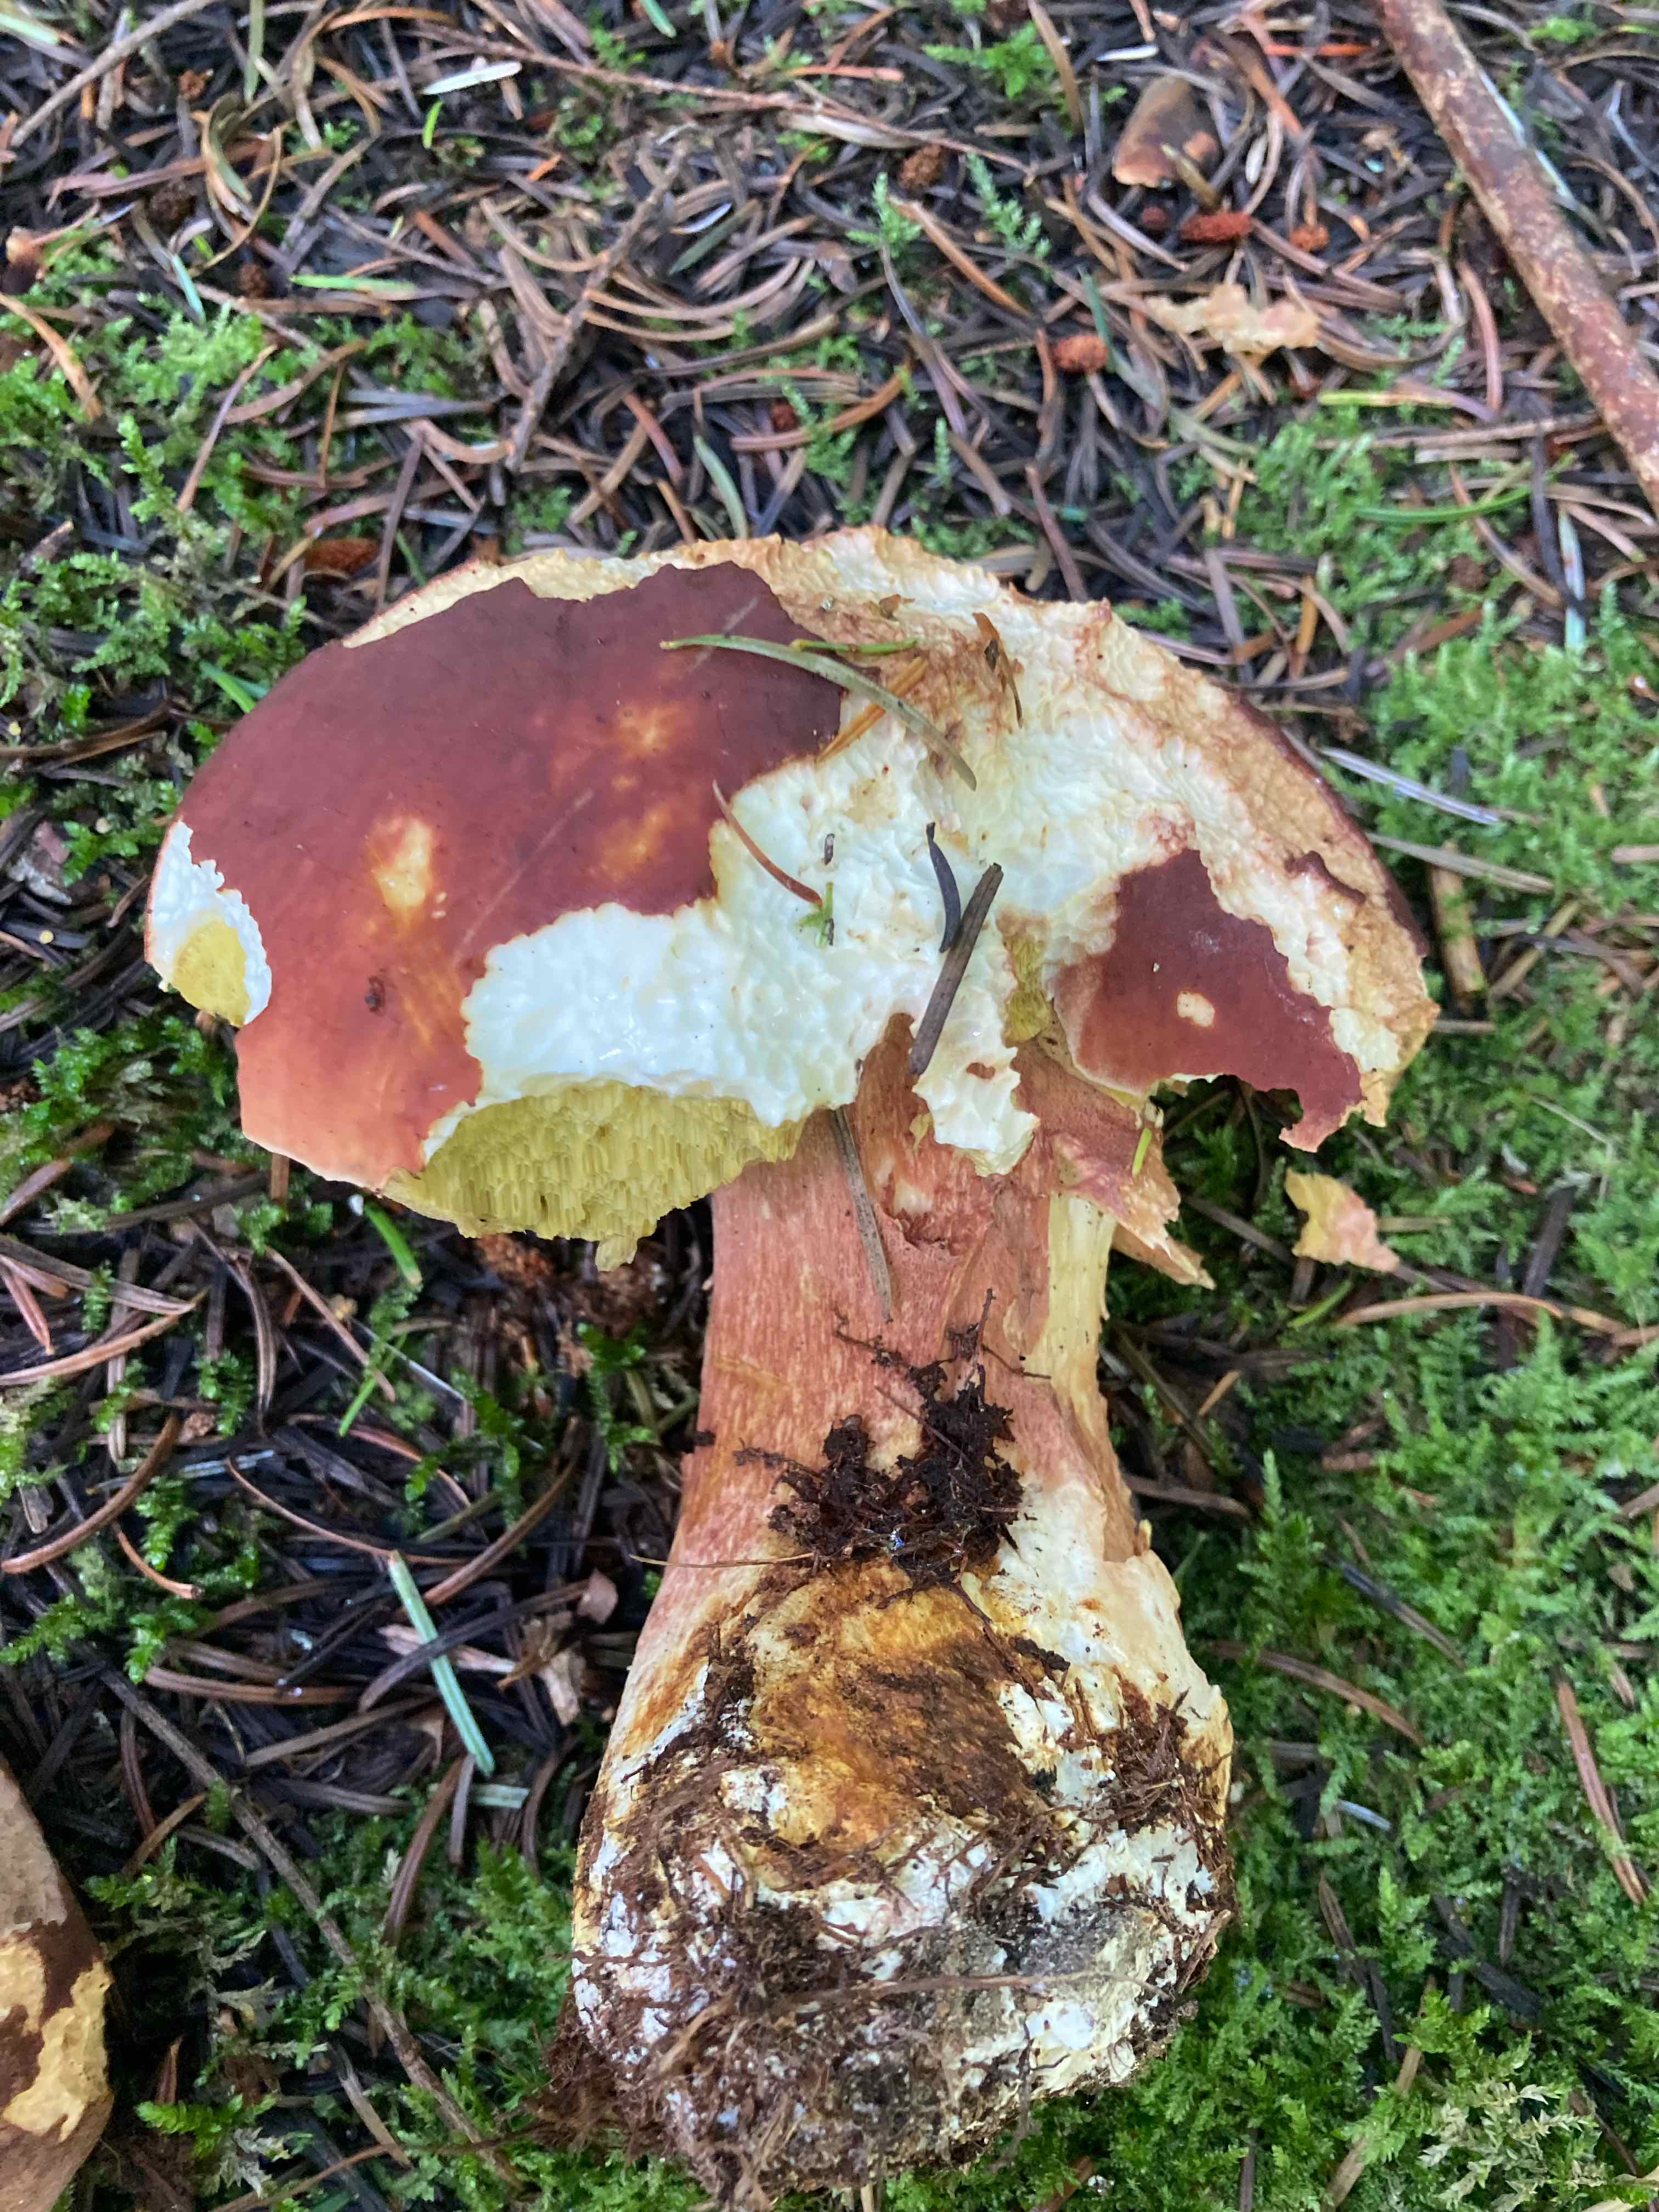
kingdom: Fungi
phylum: Basidiomycota
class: Agaricomycetes
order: Boletales
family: Boletaceae
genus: Boletus
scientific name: Boletus pinophilus
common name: rødbrun rørhat
